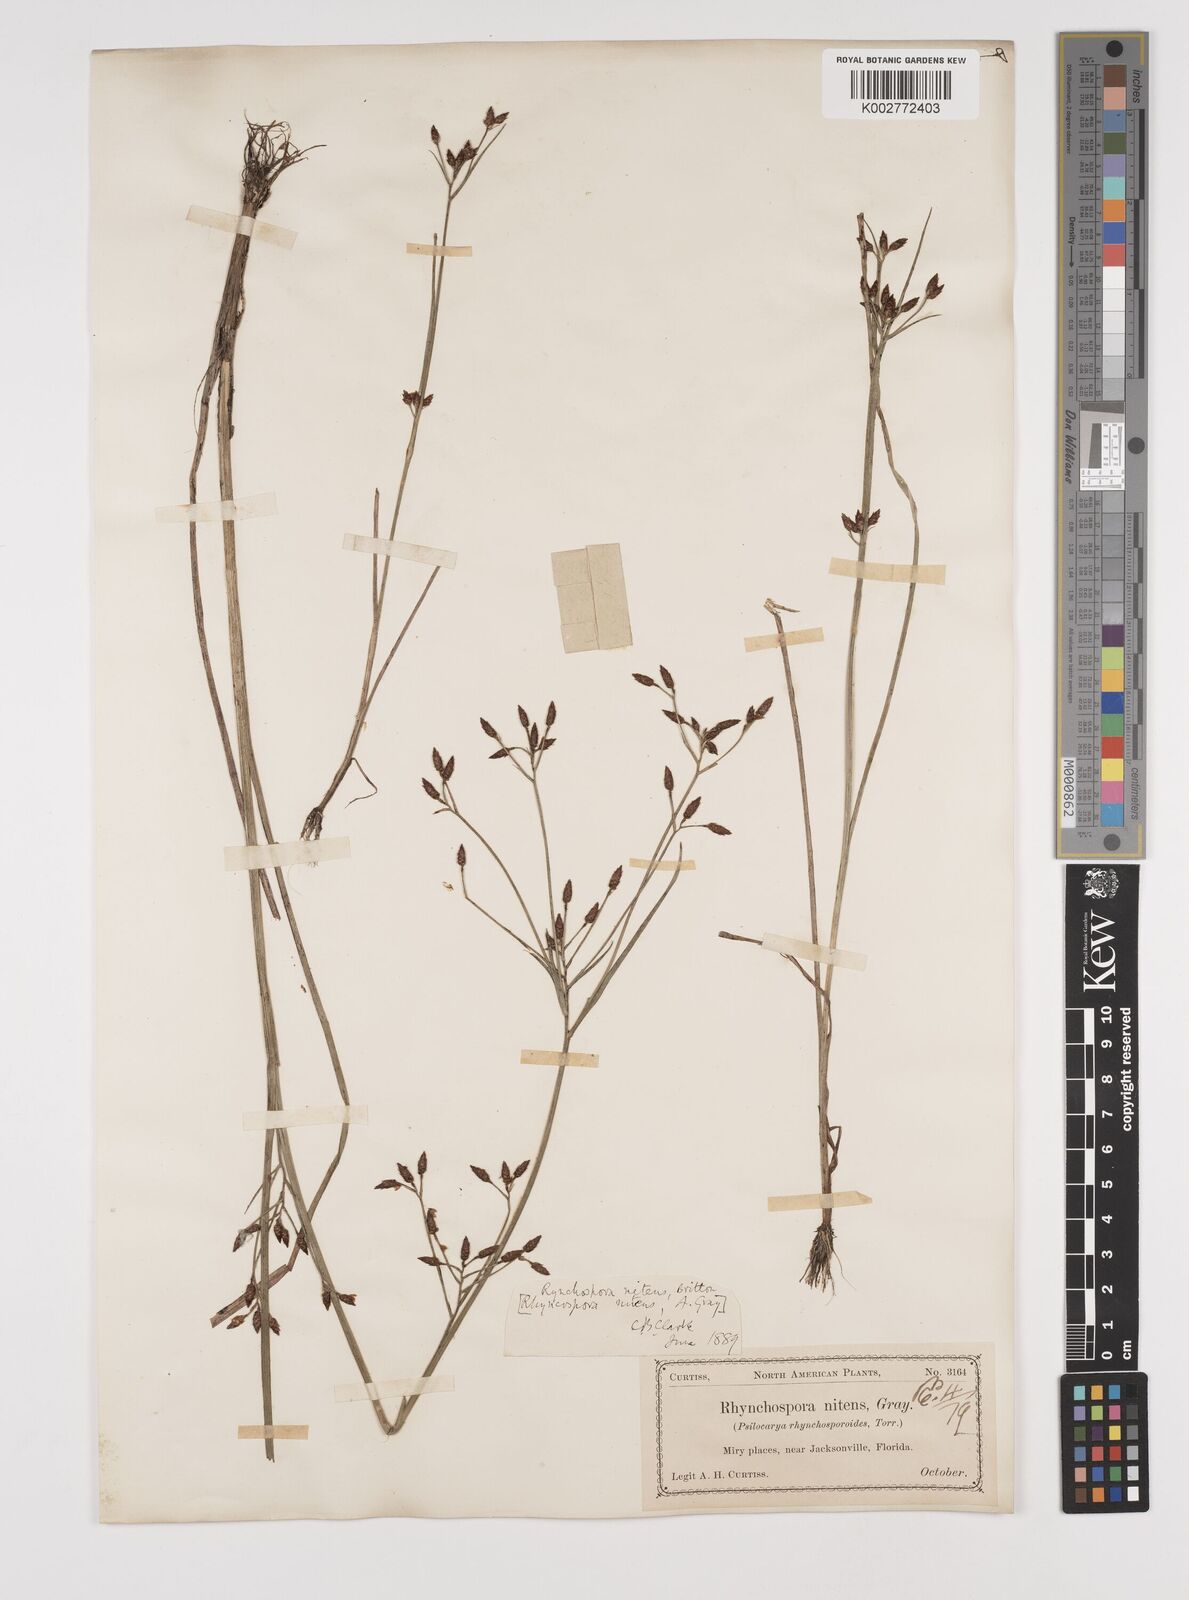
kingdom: Plantae
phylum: Tracheophyta
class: Liliopsida
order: Poales
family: Cyperaceae
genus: Rhynchospora
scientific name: Rhynchospora nitens
